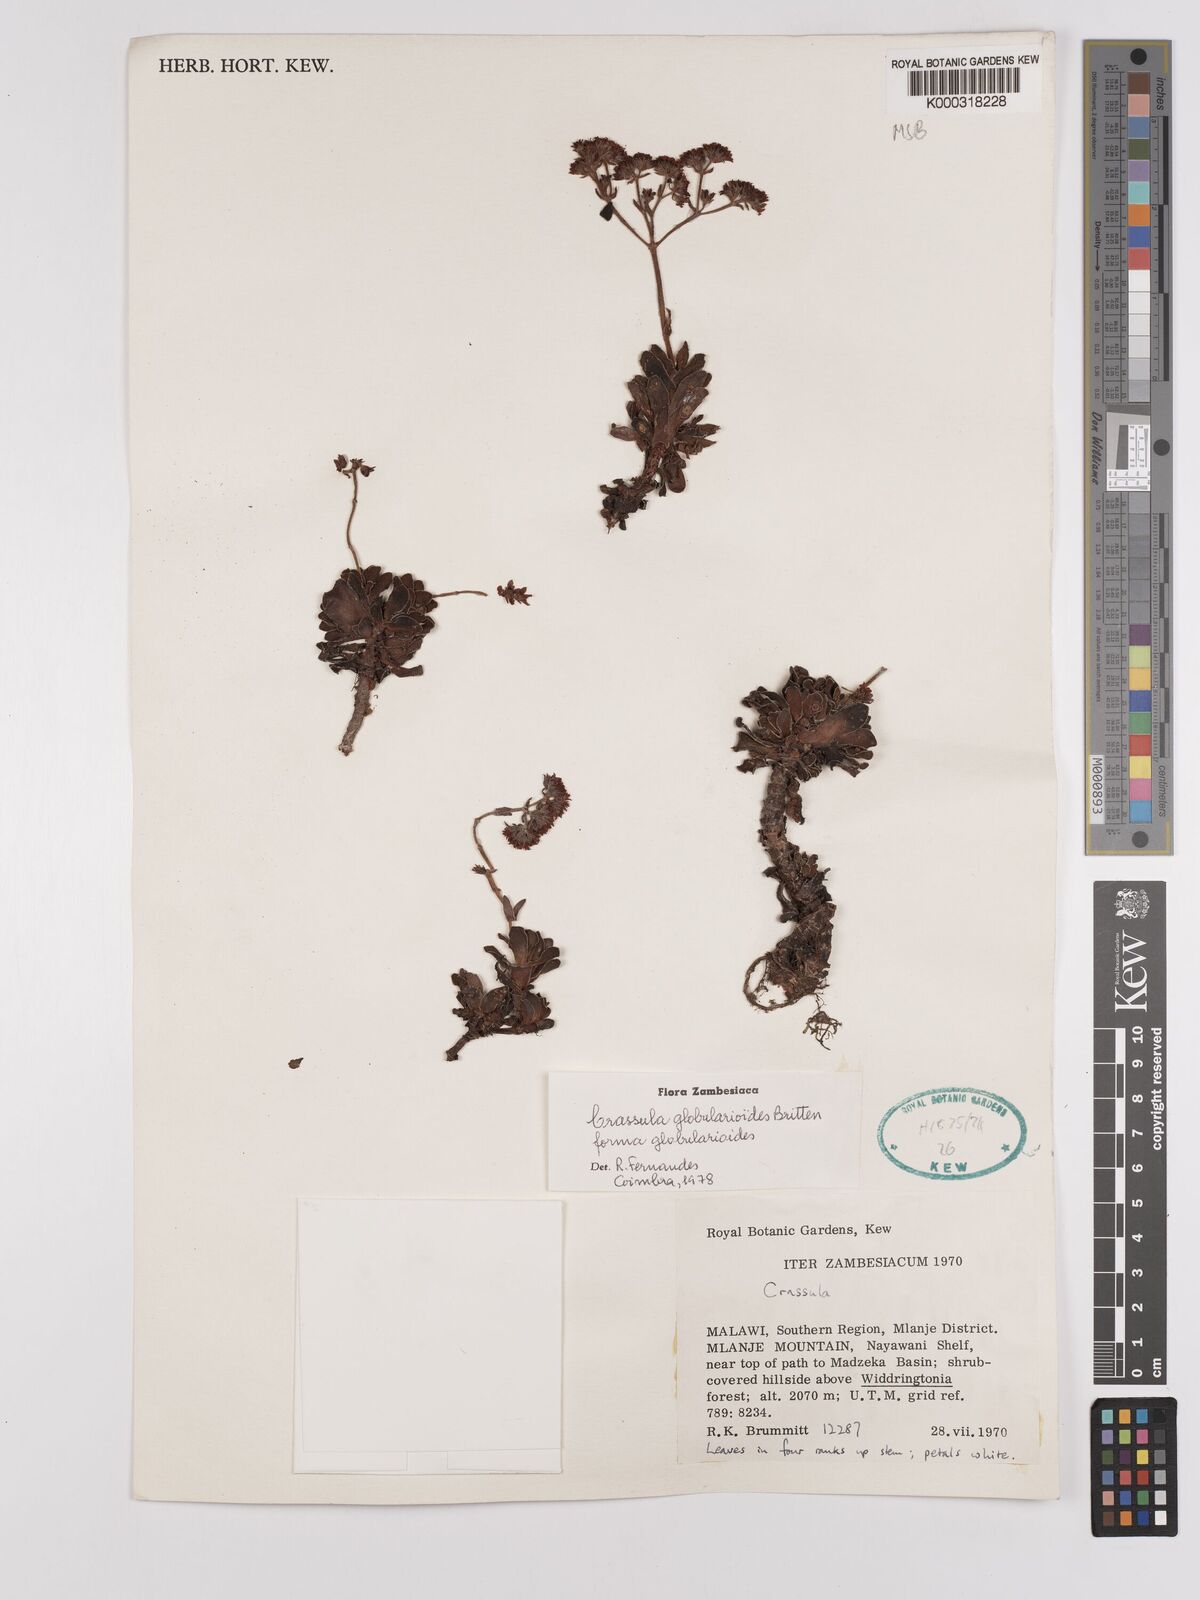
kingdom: Plantae
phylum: Tracheophyta
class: Magnoliopsida
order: Saxifragales
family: Crassulaceae
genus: Crassula
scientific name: Crassula globularioides
